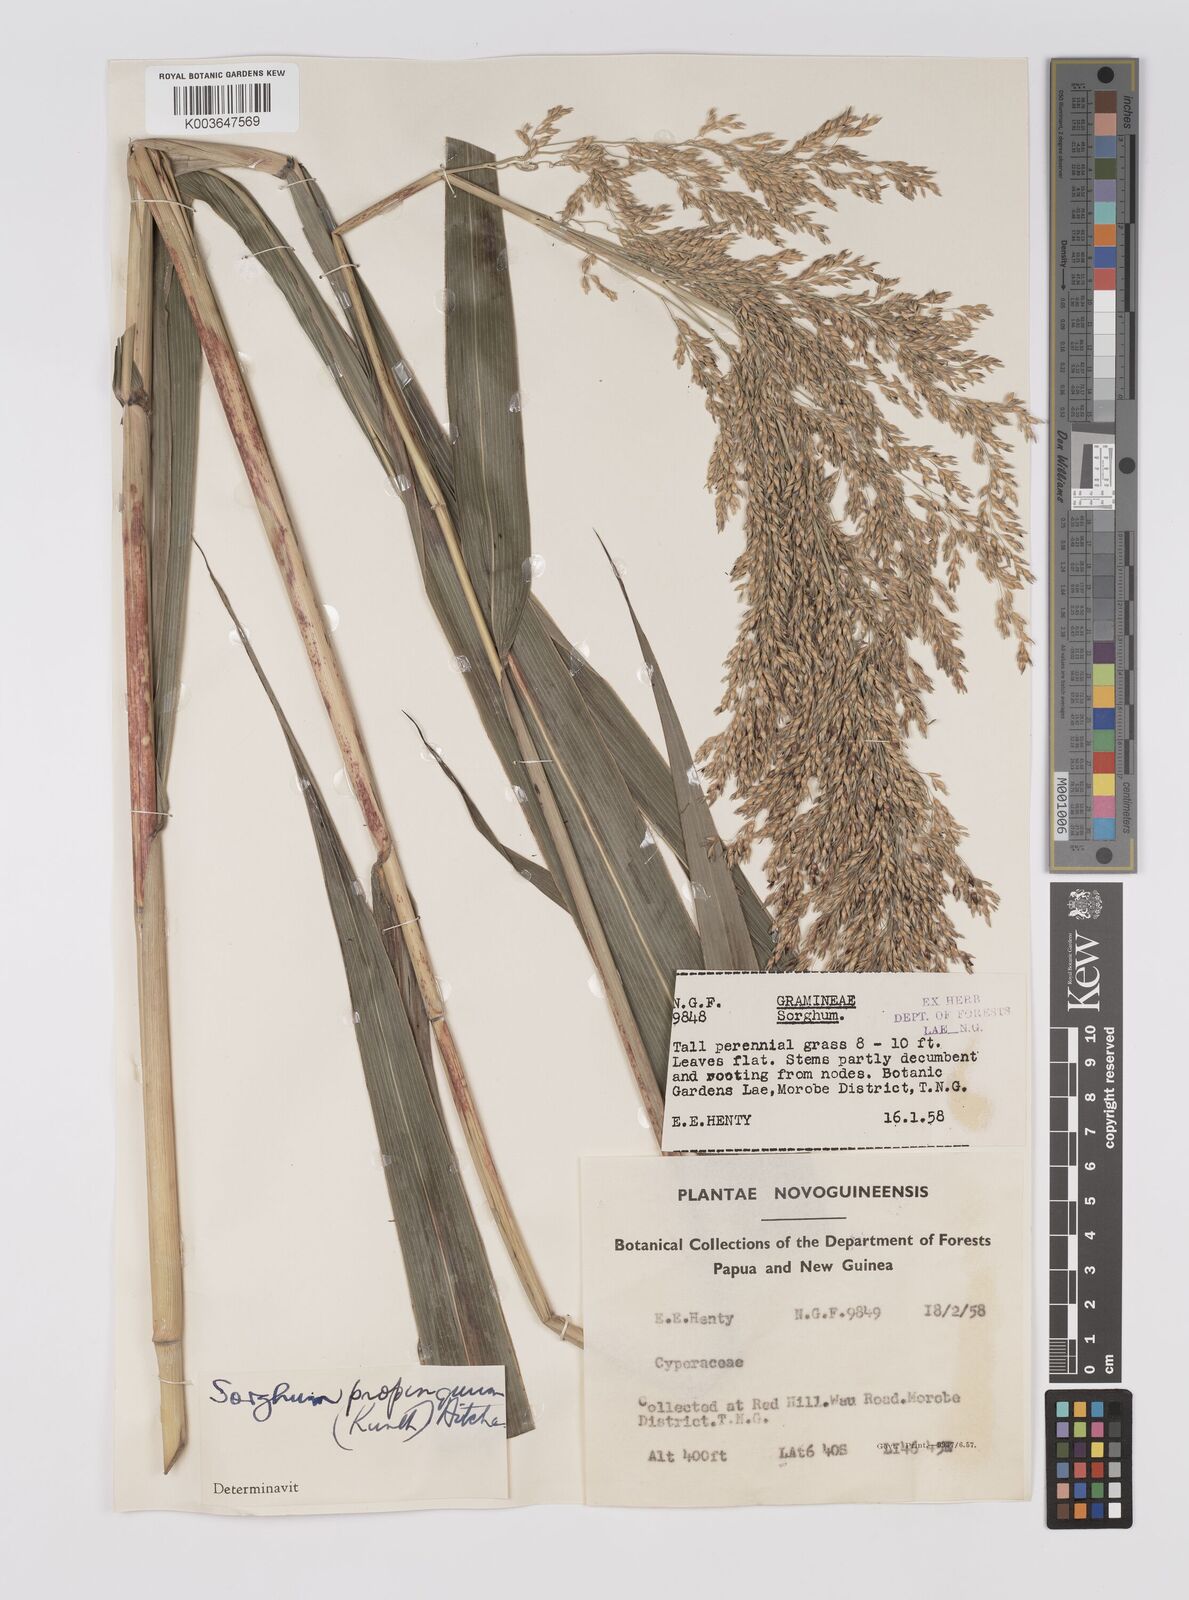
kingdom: Plantae
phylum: Tracheophyta
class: Liliopsida
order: Poales
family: Poaceae
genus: Sorghum
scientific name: Sorghum propinquum
